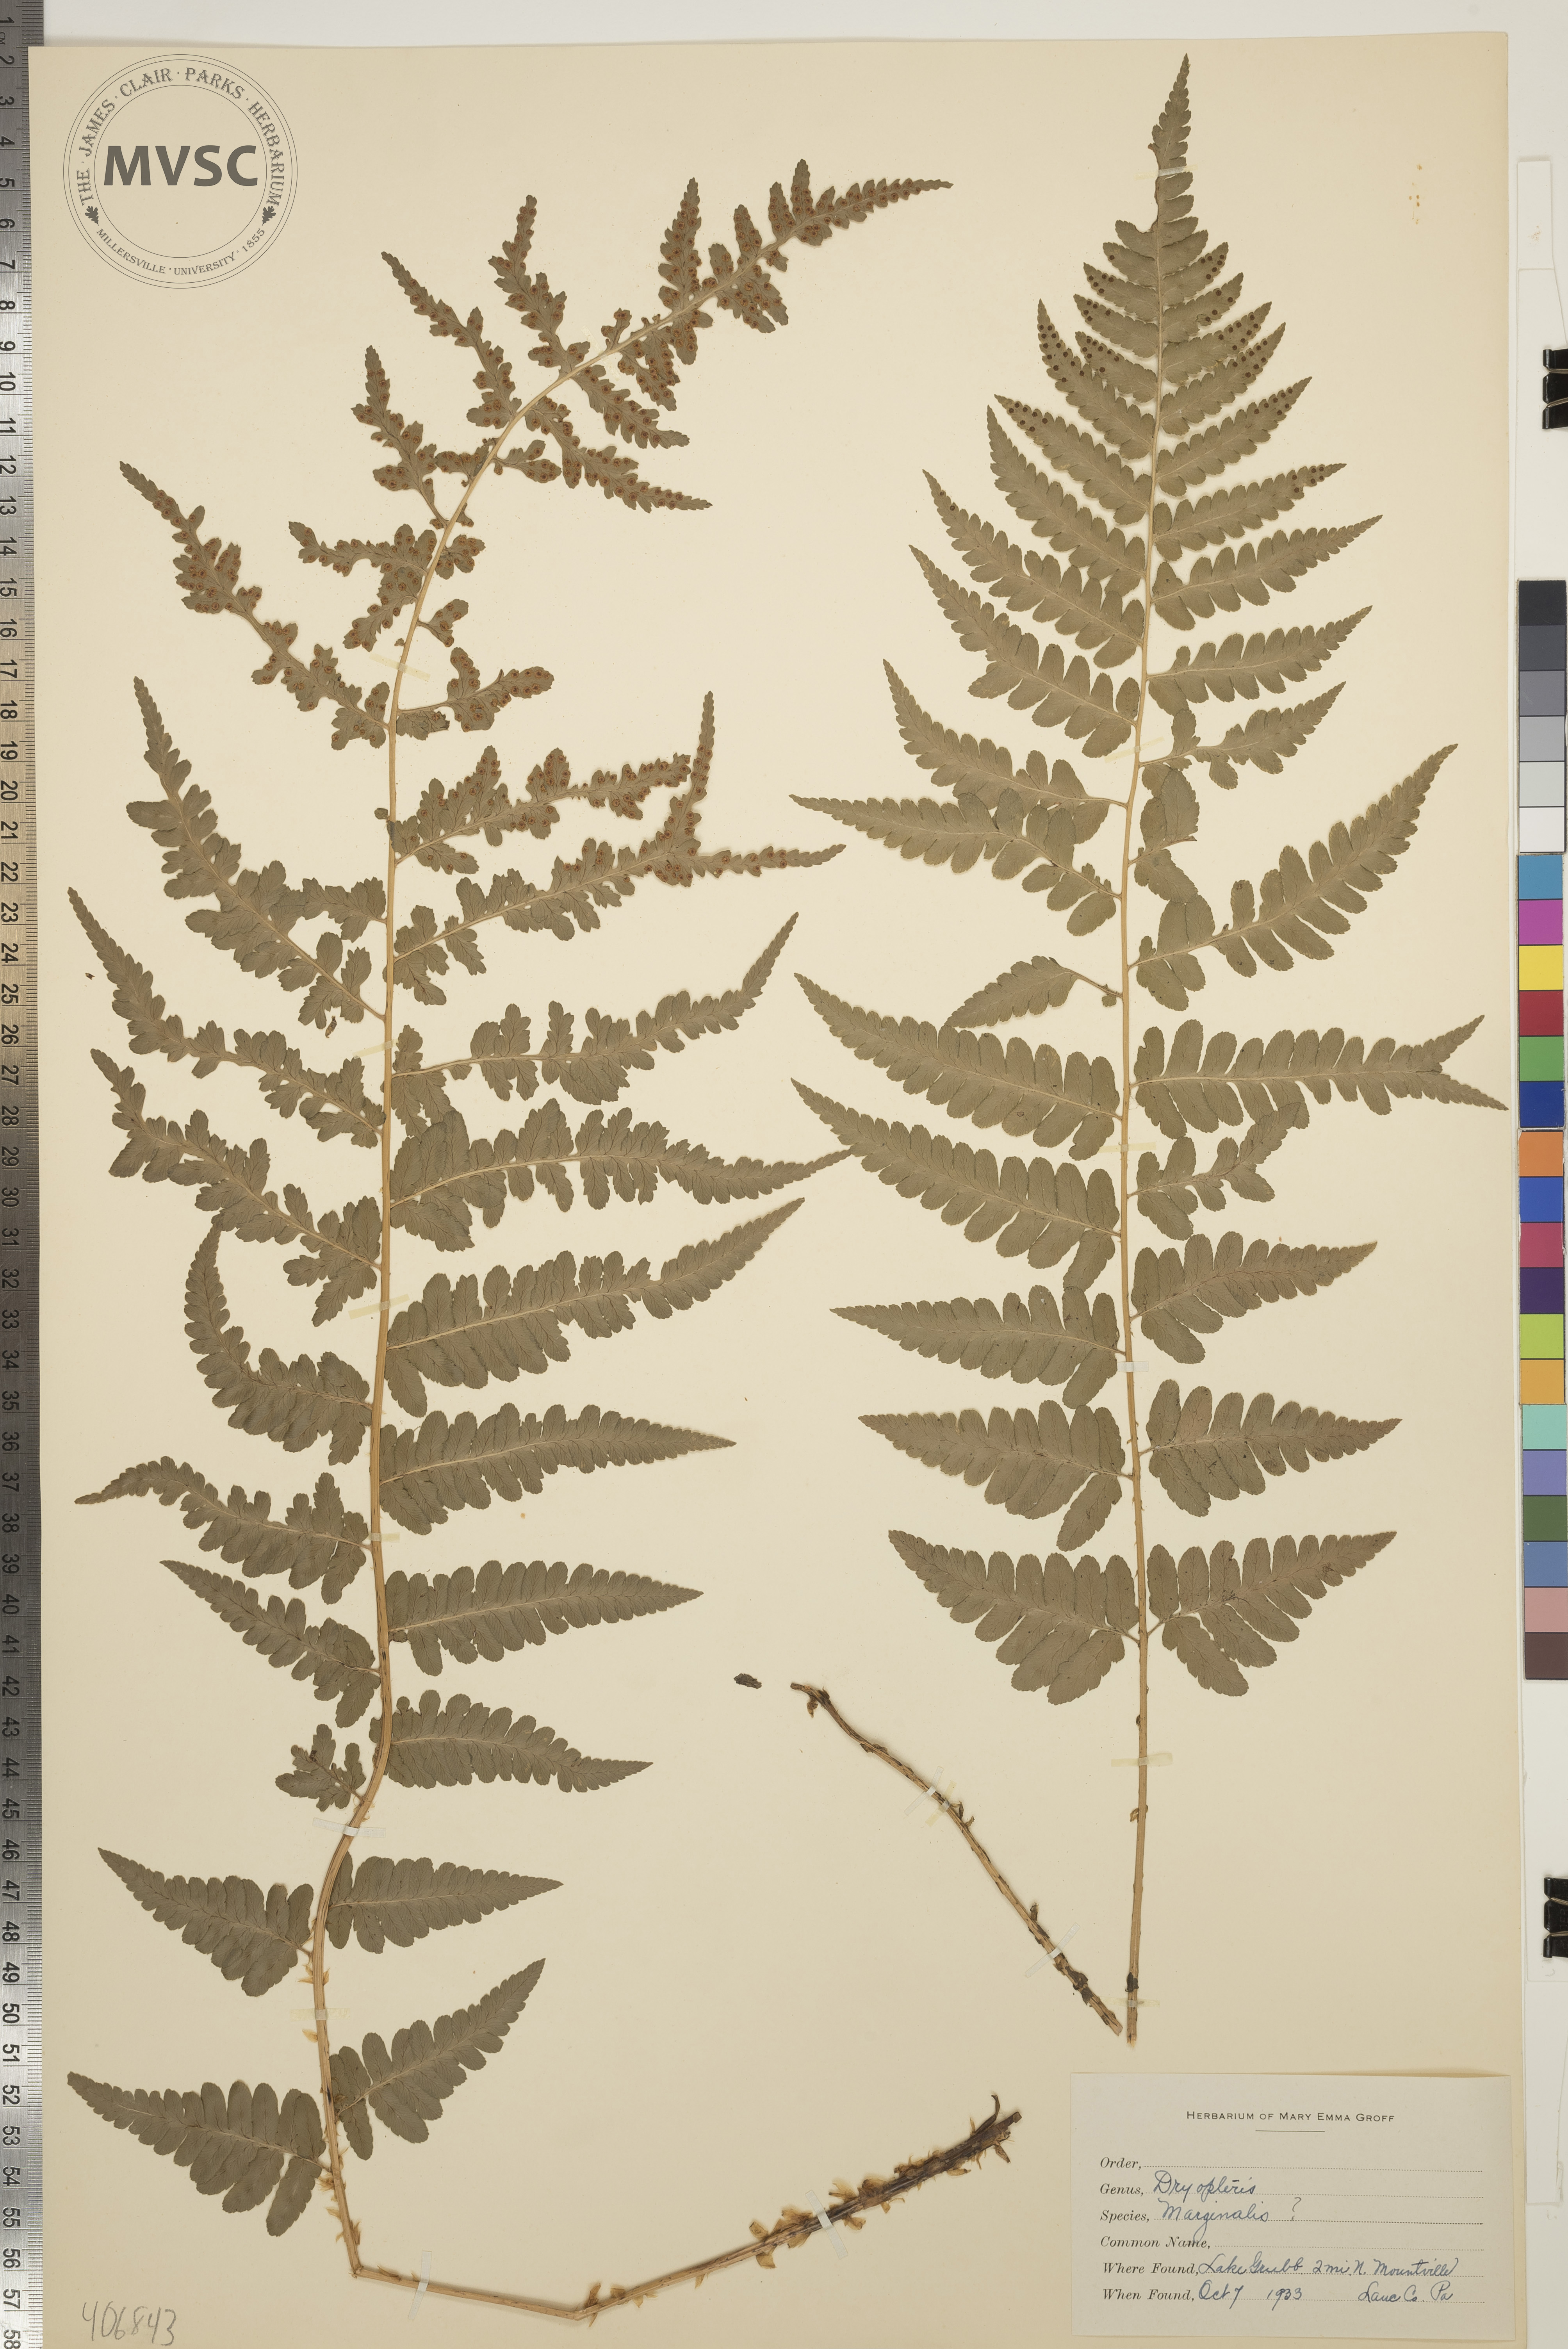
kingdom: Plantae
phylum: Tracheophyta
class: Polypodiopsida
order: Polypodiales
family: Dryopteridaceae
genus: Dryopteris
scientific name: Dryopteris marginalis
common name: Marginal wood fern
